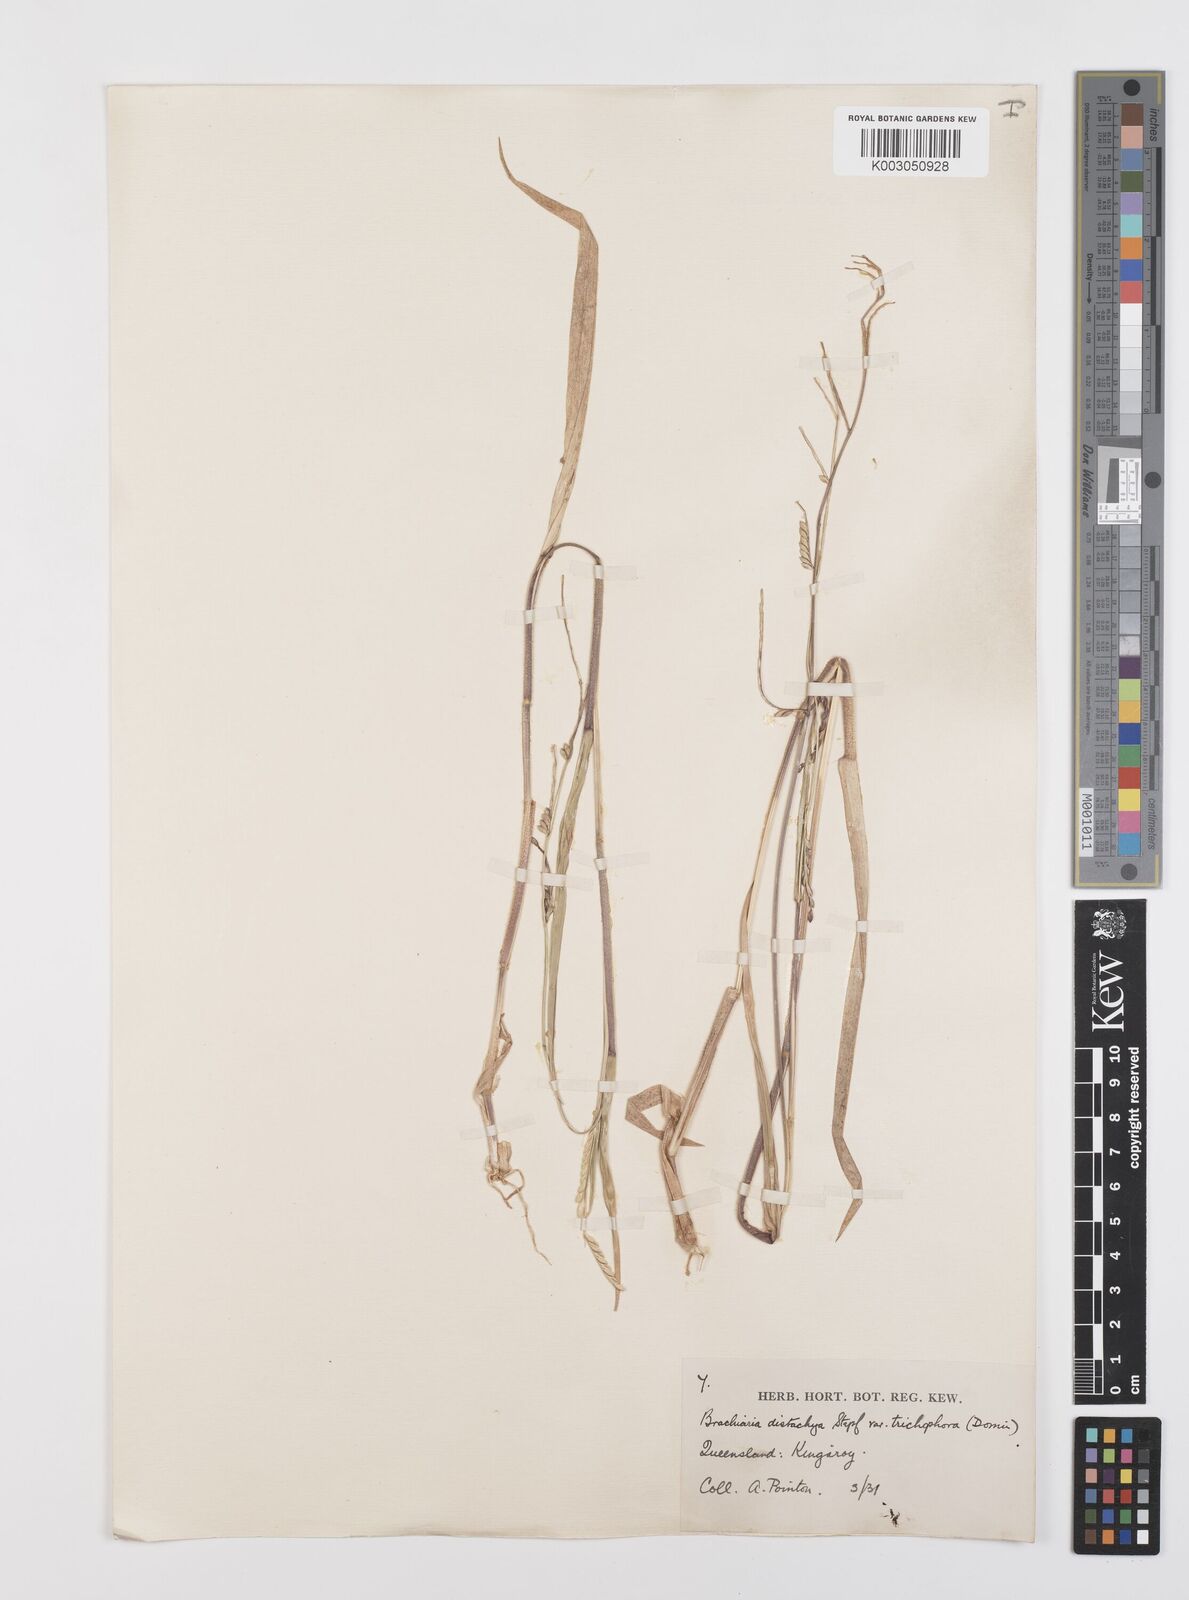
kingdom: Plantae
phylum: Tracheophyta
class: Liliopsida
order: Poales
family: Poaceae
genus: Urochloa
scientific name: Urochloa subquadripara
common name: Armgrass millet
